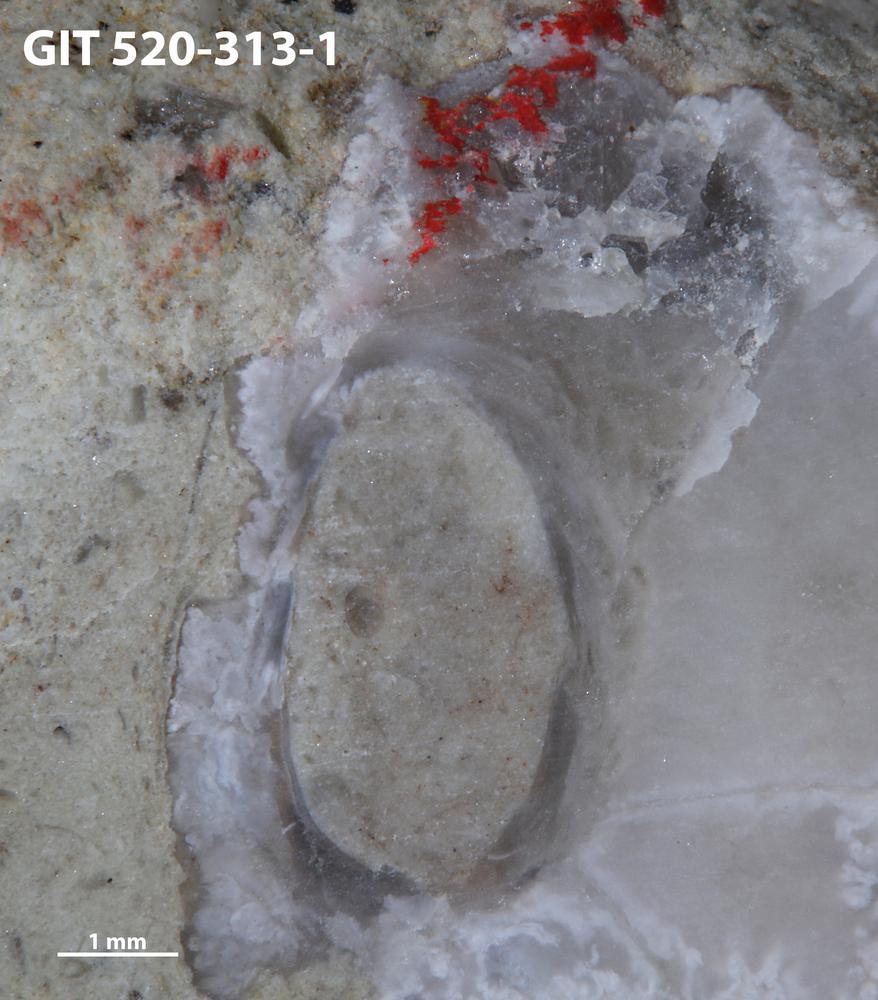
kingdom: Animalia
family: Cornulitidae
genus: Cornulites
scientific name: Cornulites
